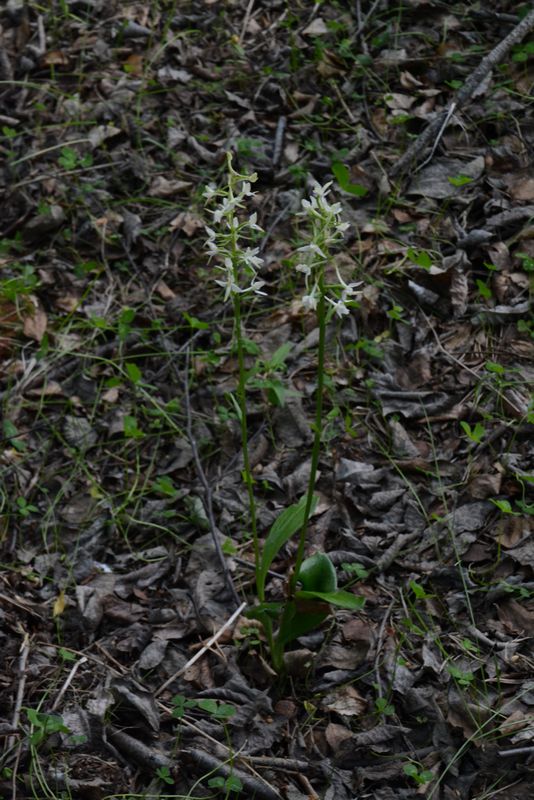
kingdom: Plantae
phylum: Tracheophyta
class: Liliopsida
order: Asparagales
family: Orchidaceae
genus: Platanthera
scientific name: Platanthera bifolia
